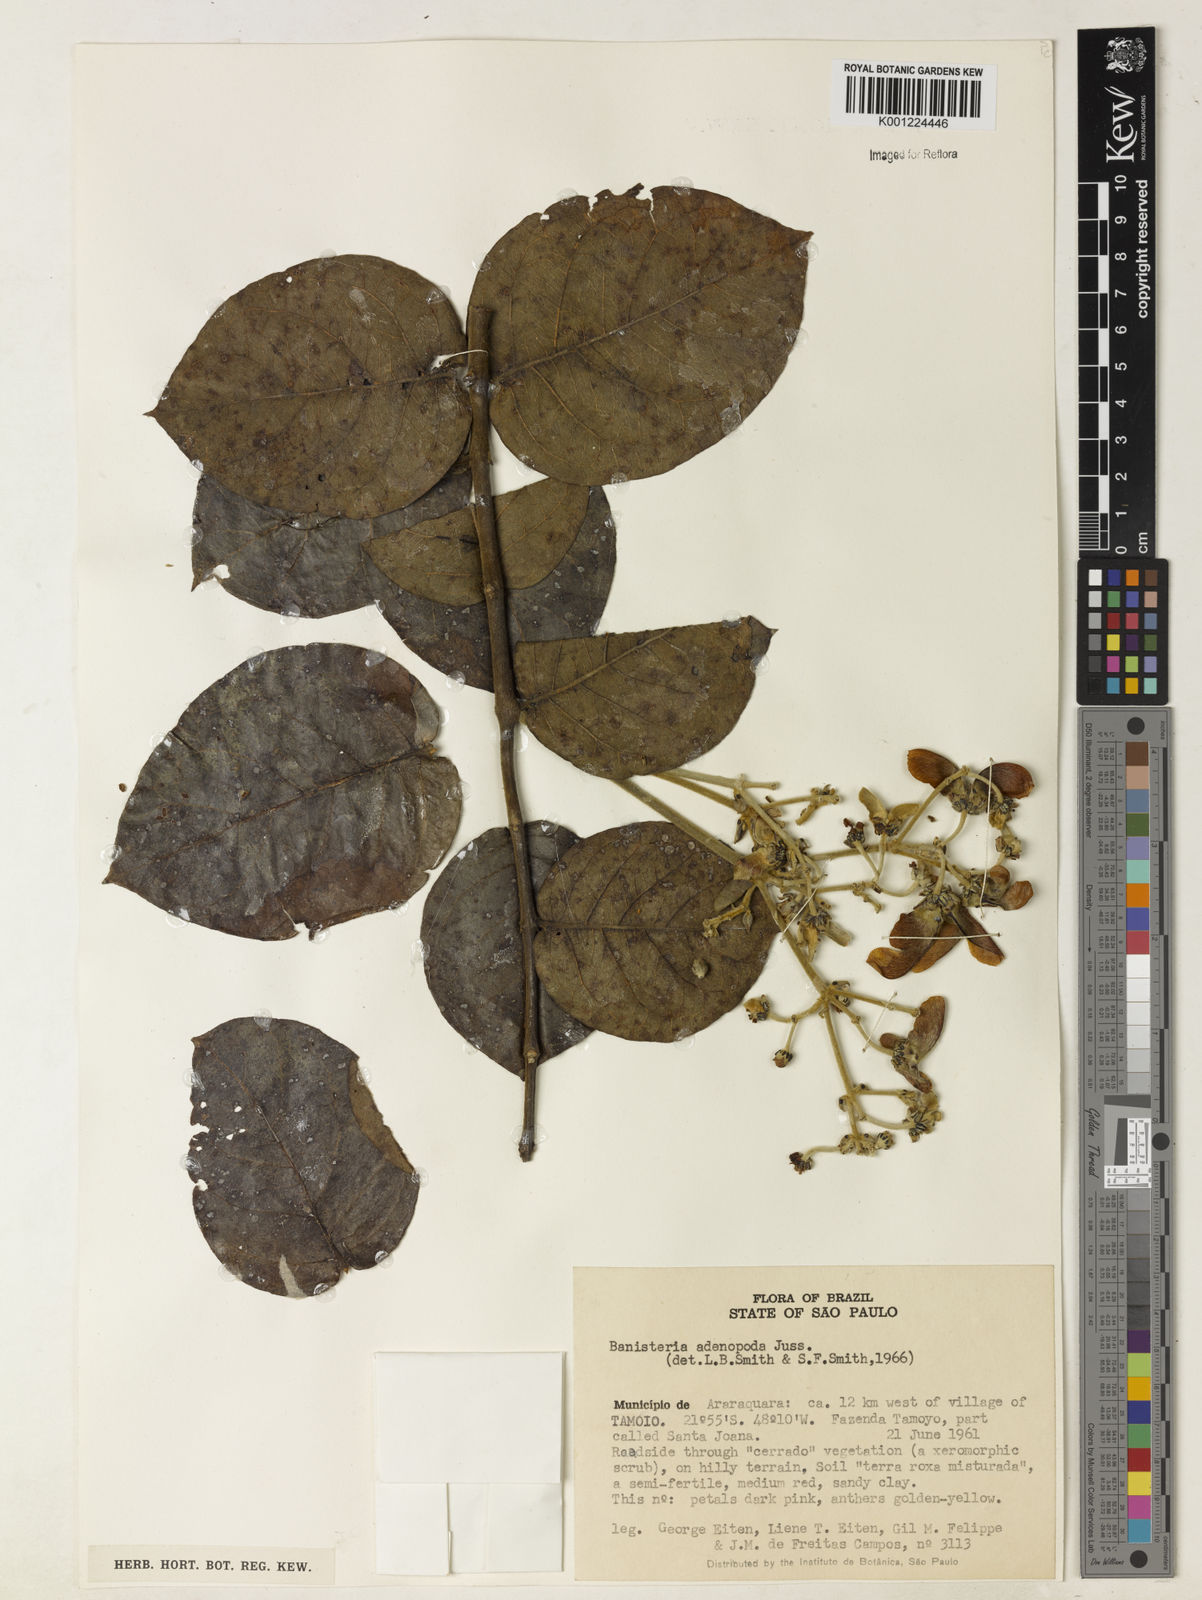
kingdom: Plantae
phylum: Tracheophyta
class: Magnoliopsida
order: Malpighiales
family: Malpighiaceae
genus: Banisteriopsis
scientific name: Banisteriopsis adenopoda
